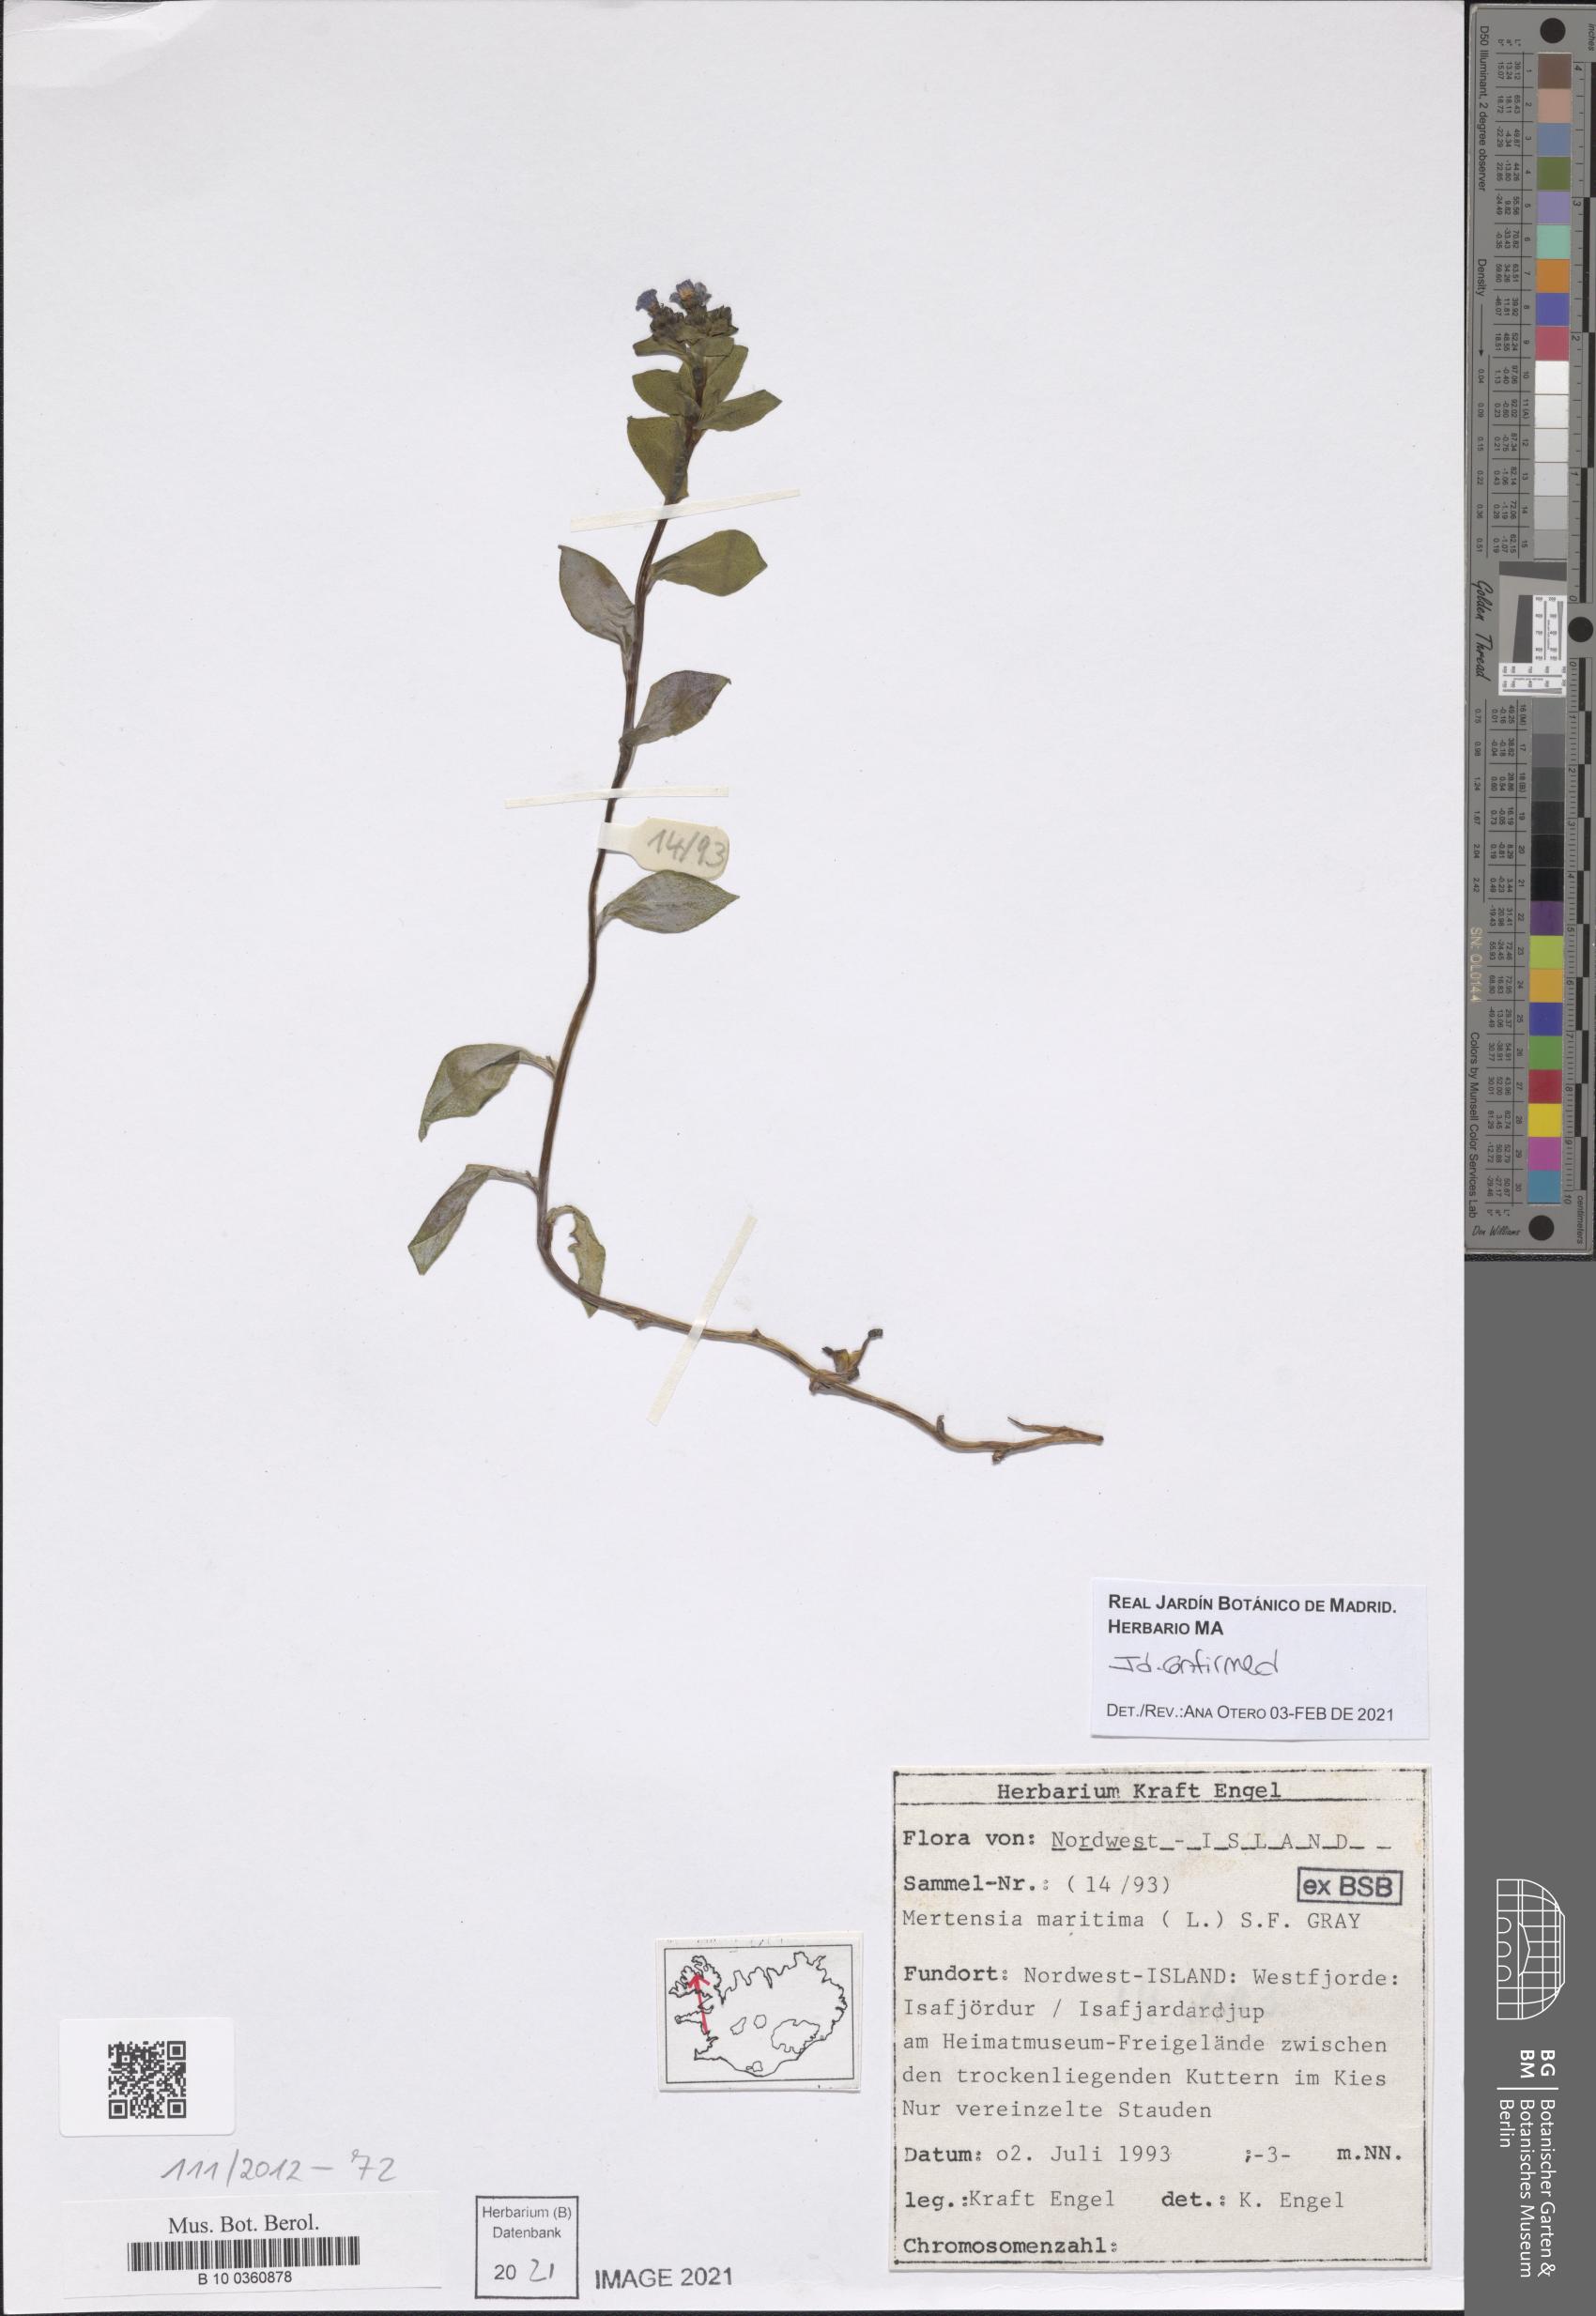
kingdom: Plantae
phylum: Tracheophyta
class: Magnoliopsida
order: Boraginales
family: Boraginaceae
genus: Mertensia
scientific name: Mertensia maritima
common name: Oysterplant
